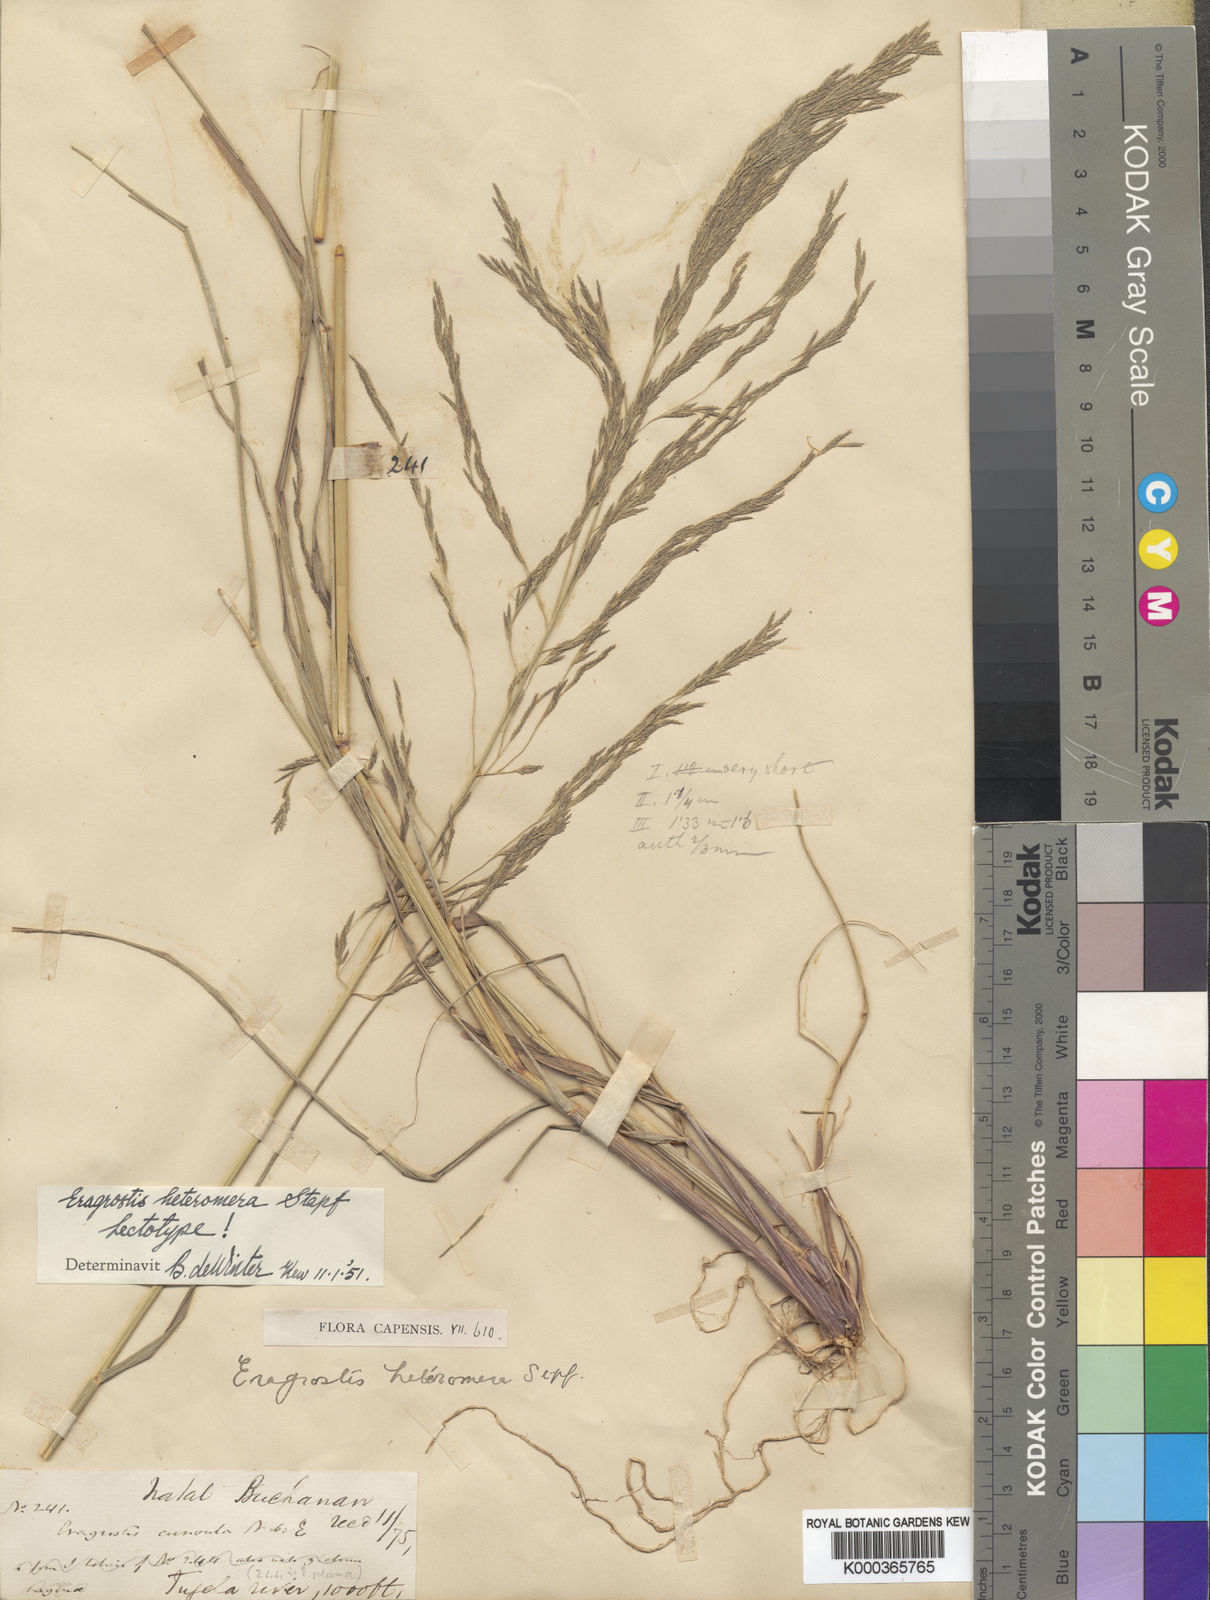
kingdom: Plantae
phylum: Tracheophyta
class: Liliopsida
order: Poales
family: Poaceae
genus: Eragrostis
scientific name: Eragrostis heteromera
